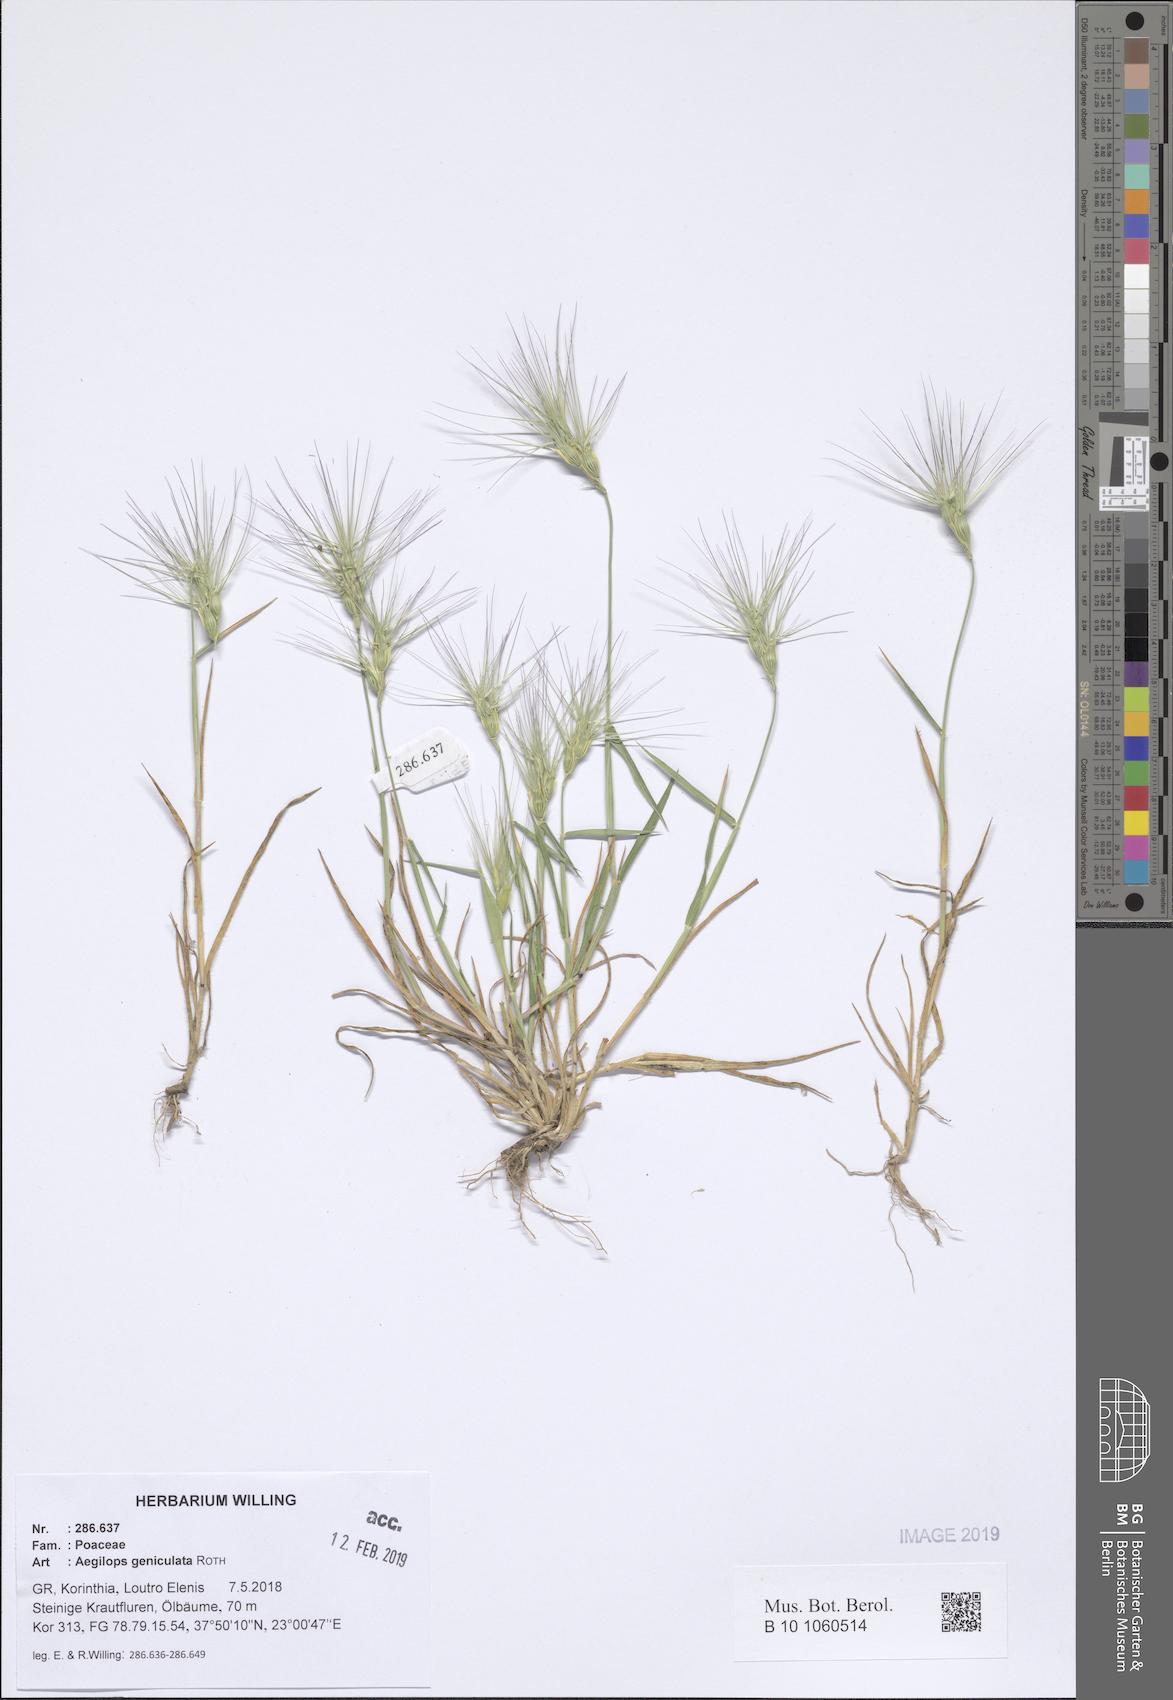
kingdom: Plantae
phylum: Tracheophyta
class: Liliopsida
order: Poales
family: Poaceae
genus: Aegilops
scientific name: Aegilops geniculata
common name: Ovate goat grass
